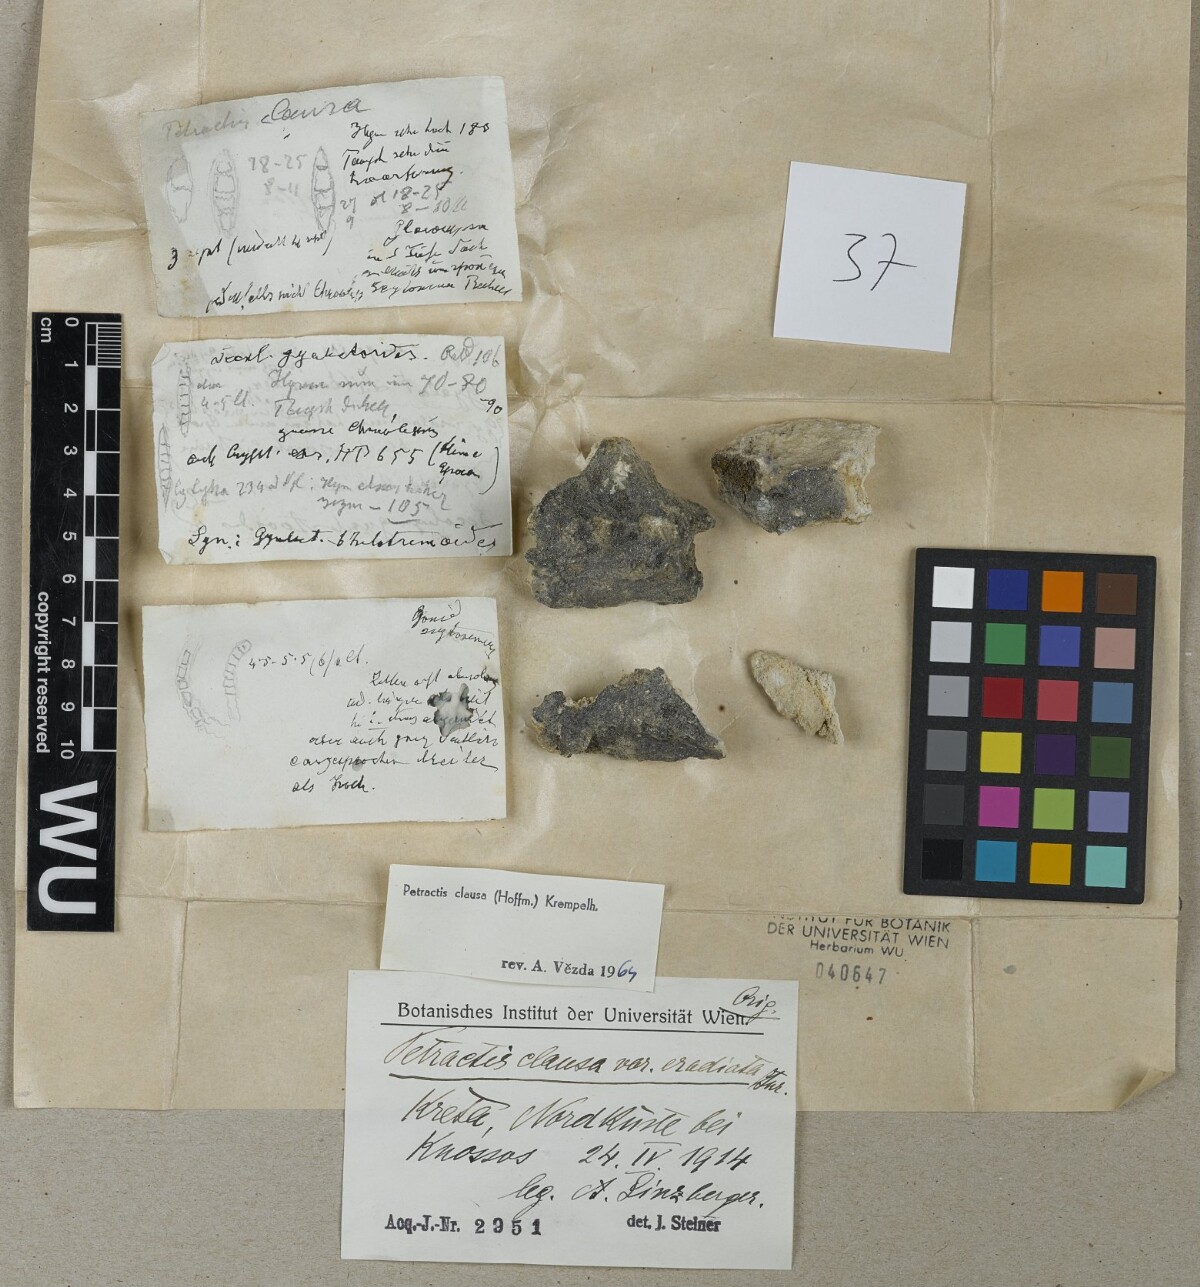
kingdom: Fungi
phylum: Ascomycota
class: Lecanoromycetes
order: Ostropales
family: Stictidaceae
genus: Petractis
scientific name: Petractis clausa
